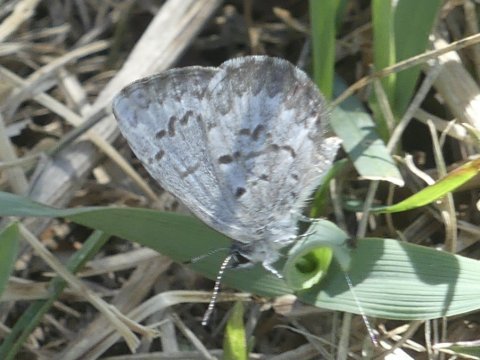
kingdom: Animalia
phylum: Arthropoda
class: Insecta
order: Lepidoptera
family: Lycaenidae
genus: Celastrina
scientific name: Celastrina lucia
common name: Northern Spring Azure
